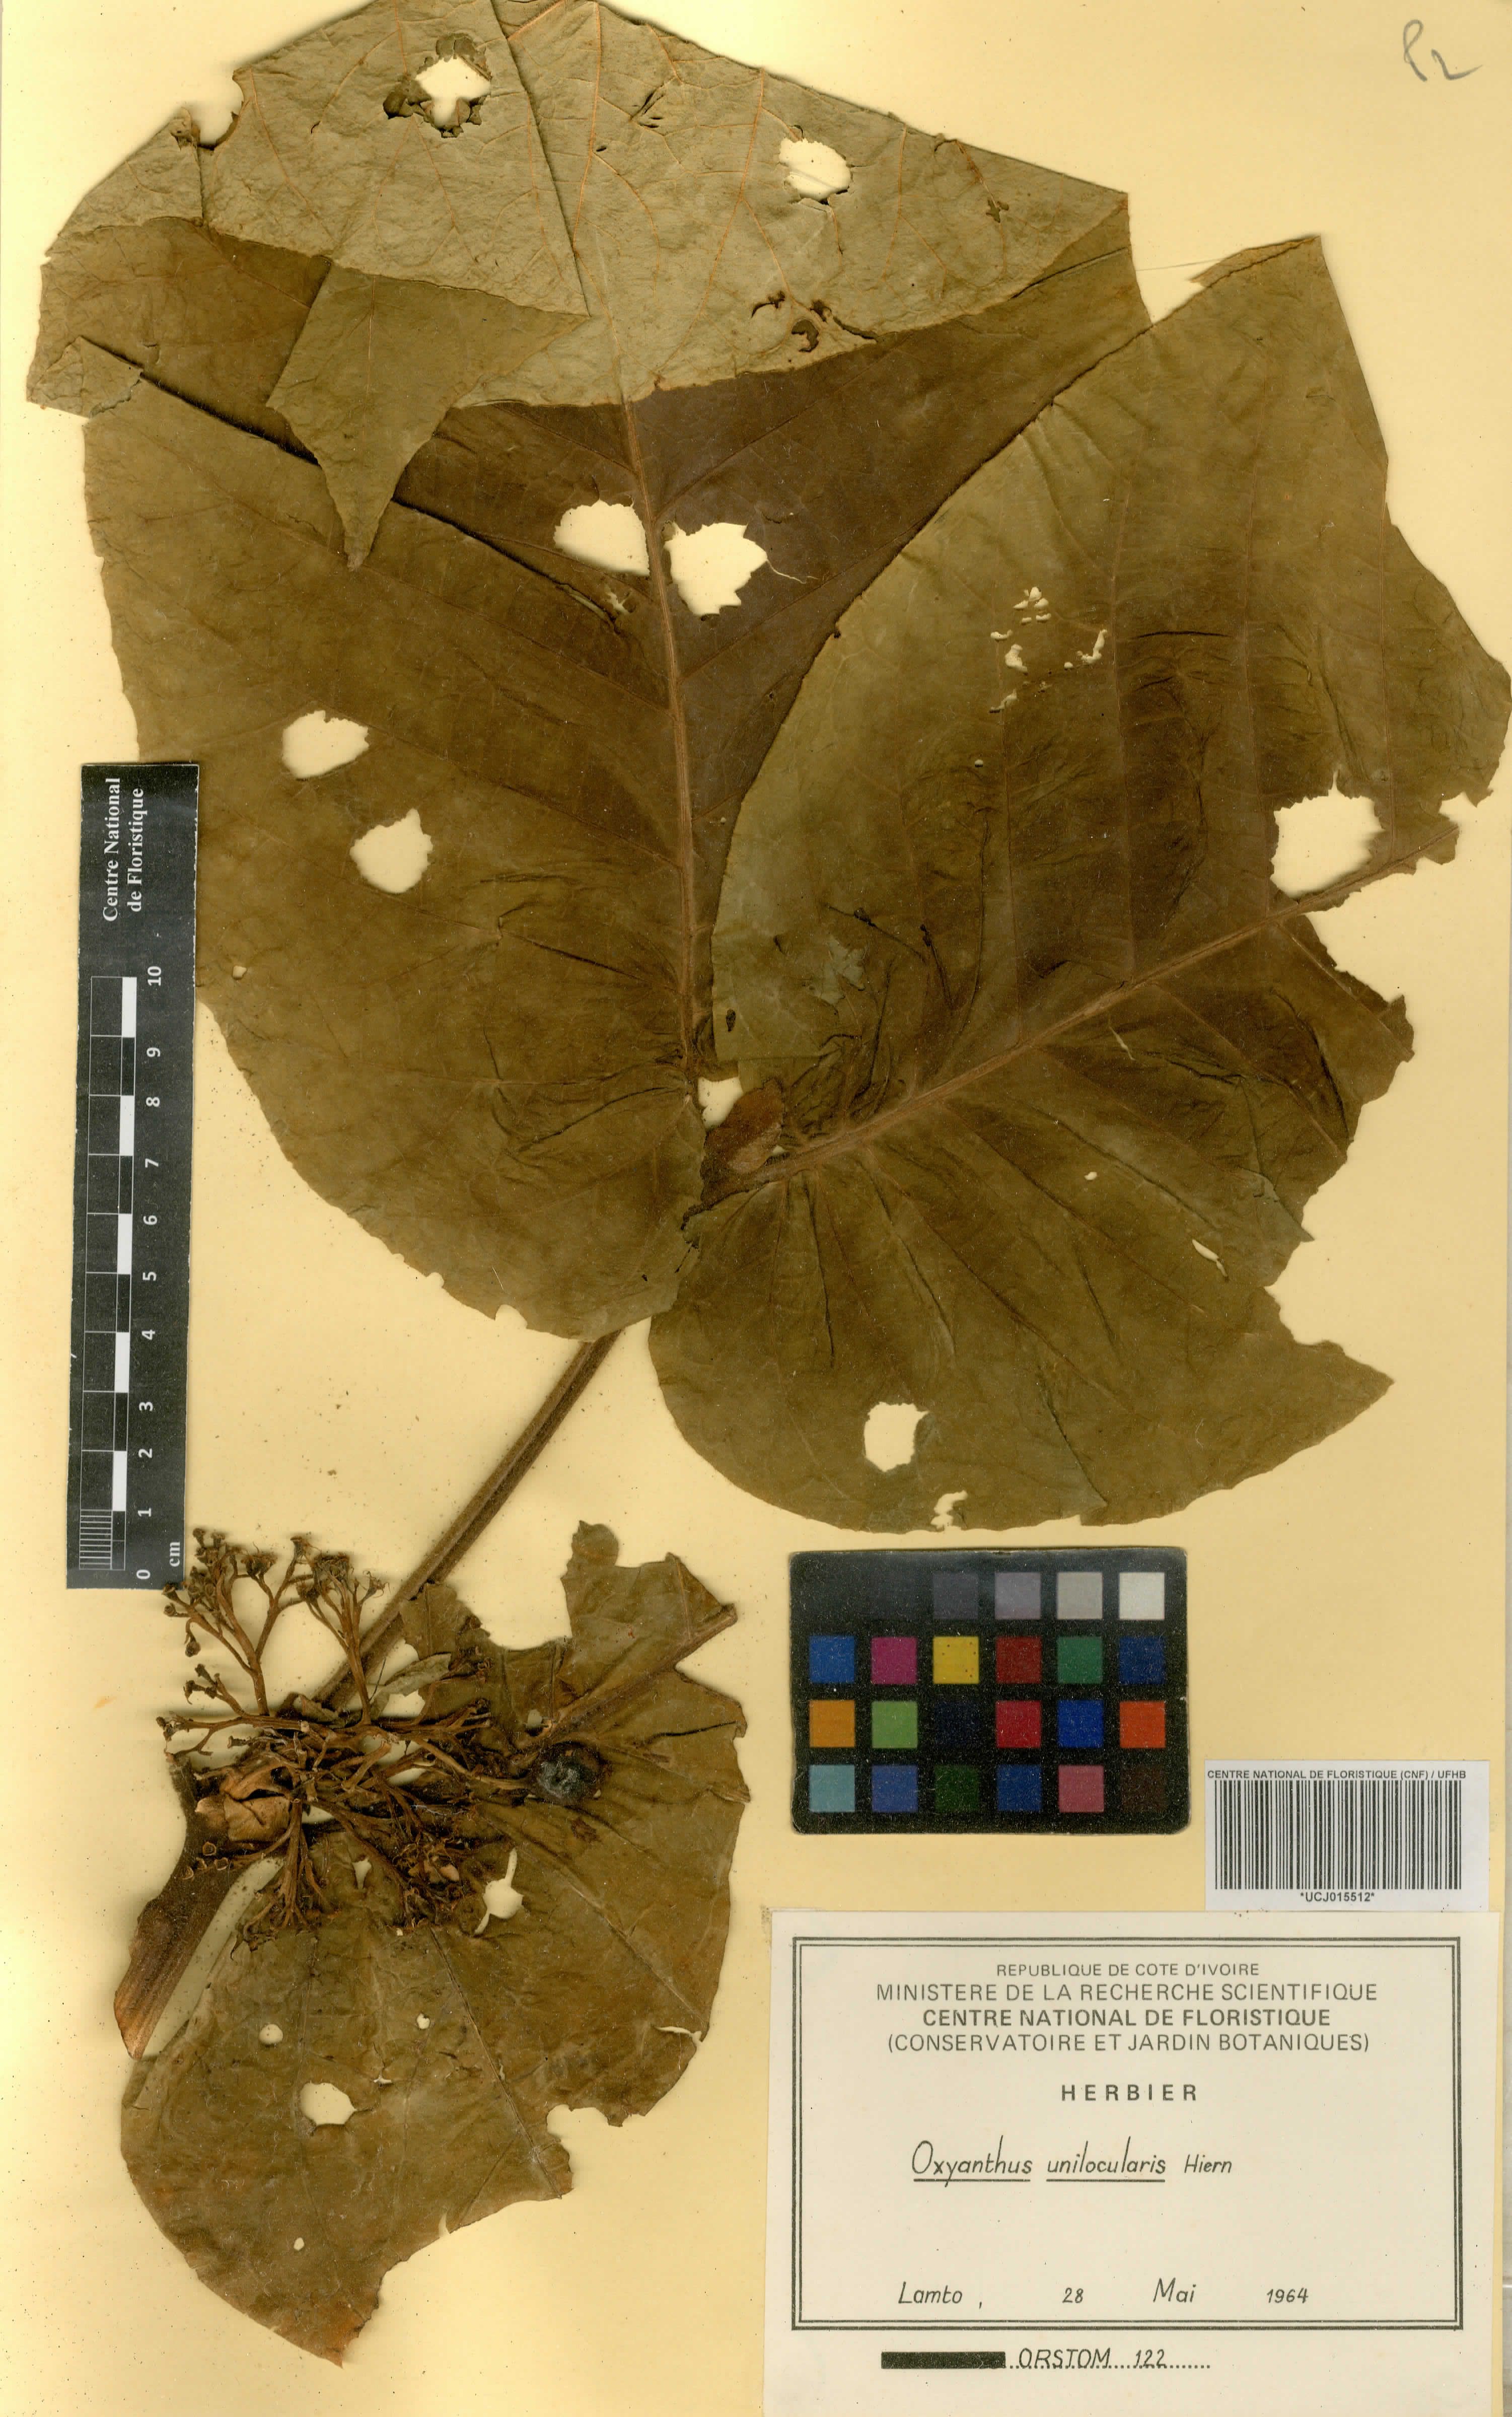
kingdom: Plantae
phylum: Tracheophyta
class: Magnoliopsida
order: Gentianales
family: Rubiaceae
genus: Oxyanthus
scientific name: Oxyanthus unilocularis
